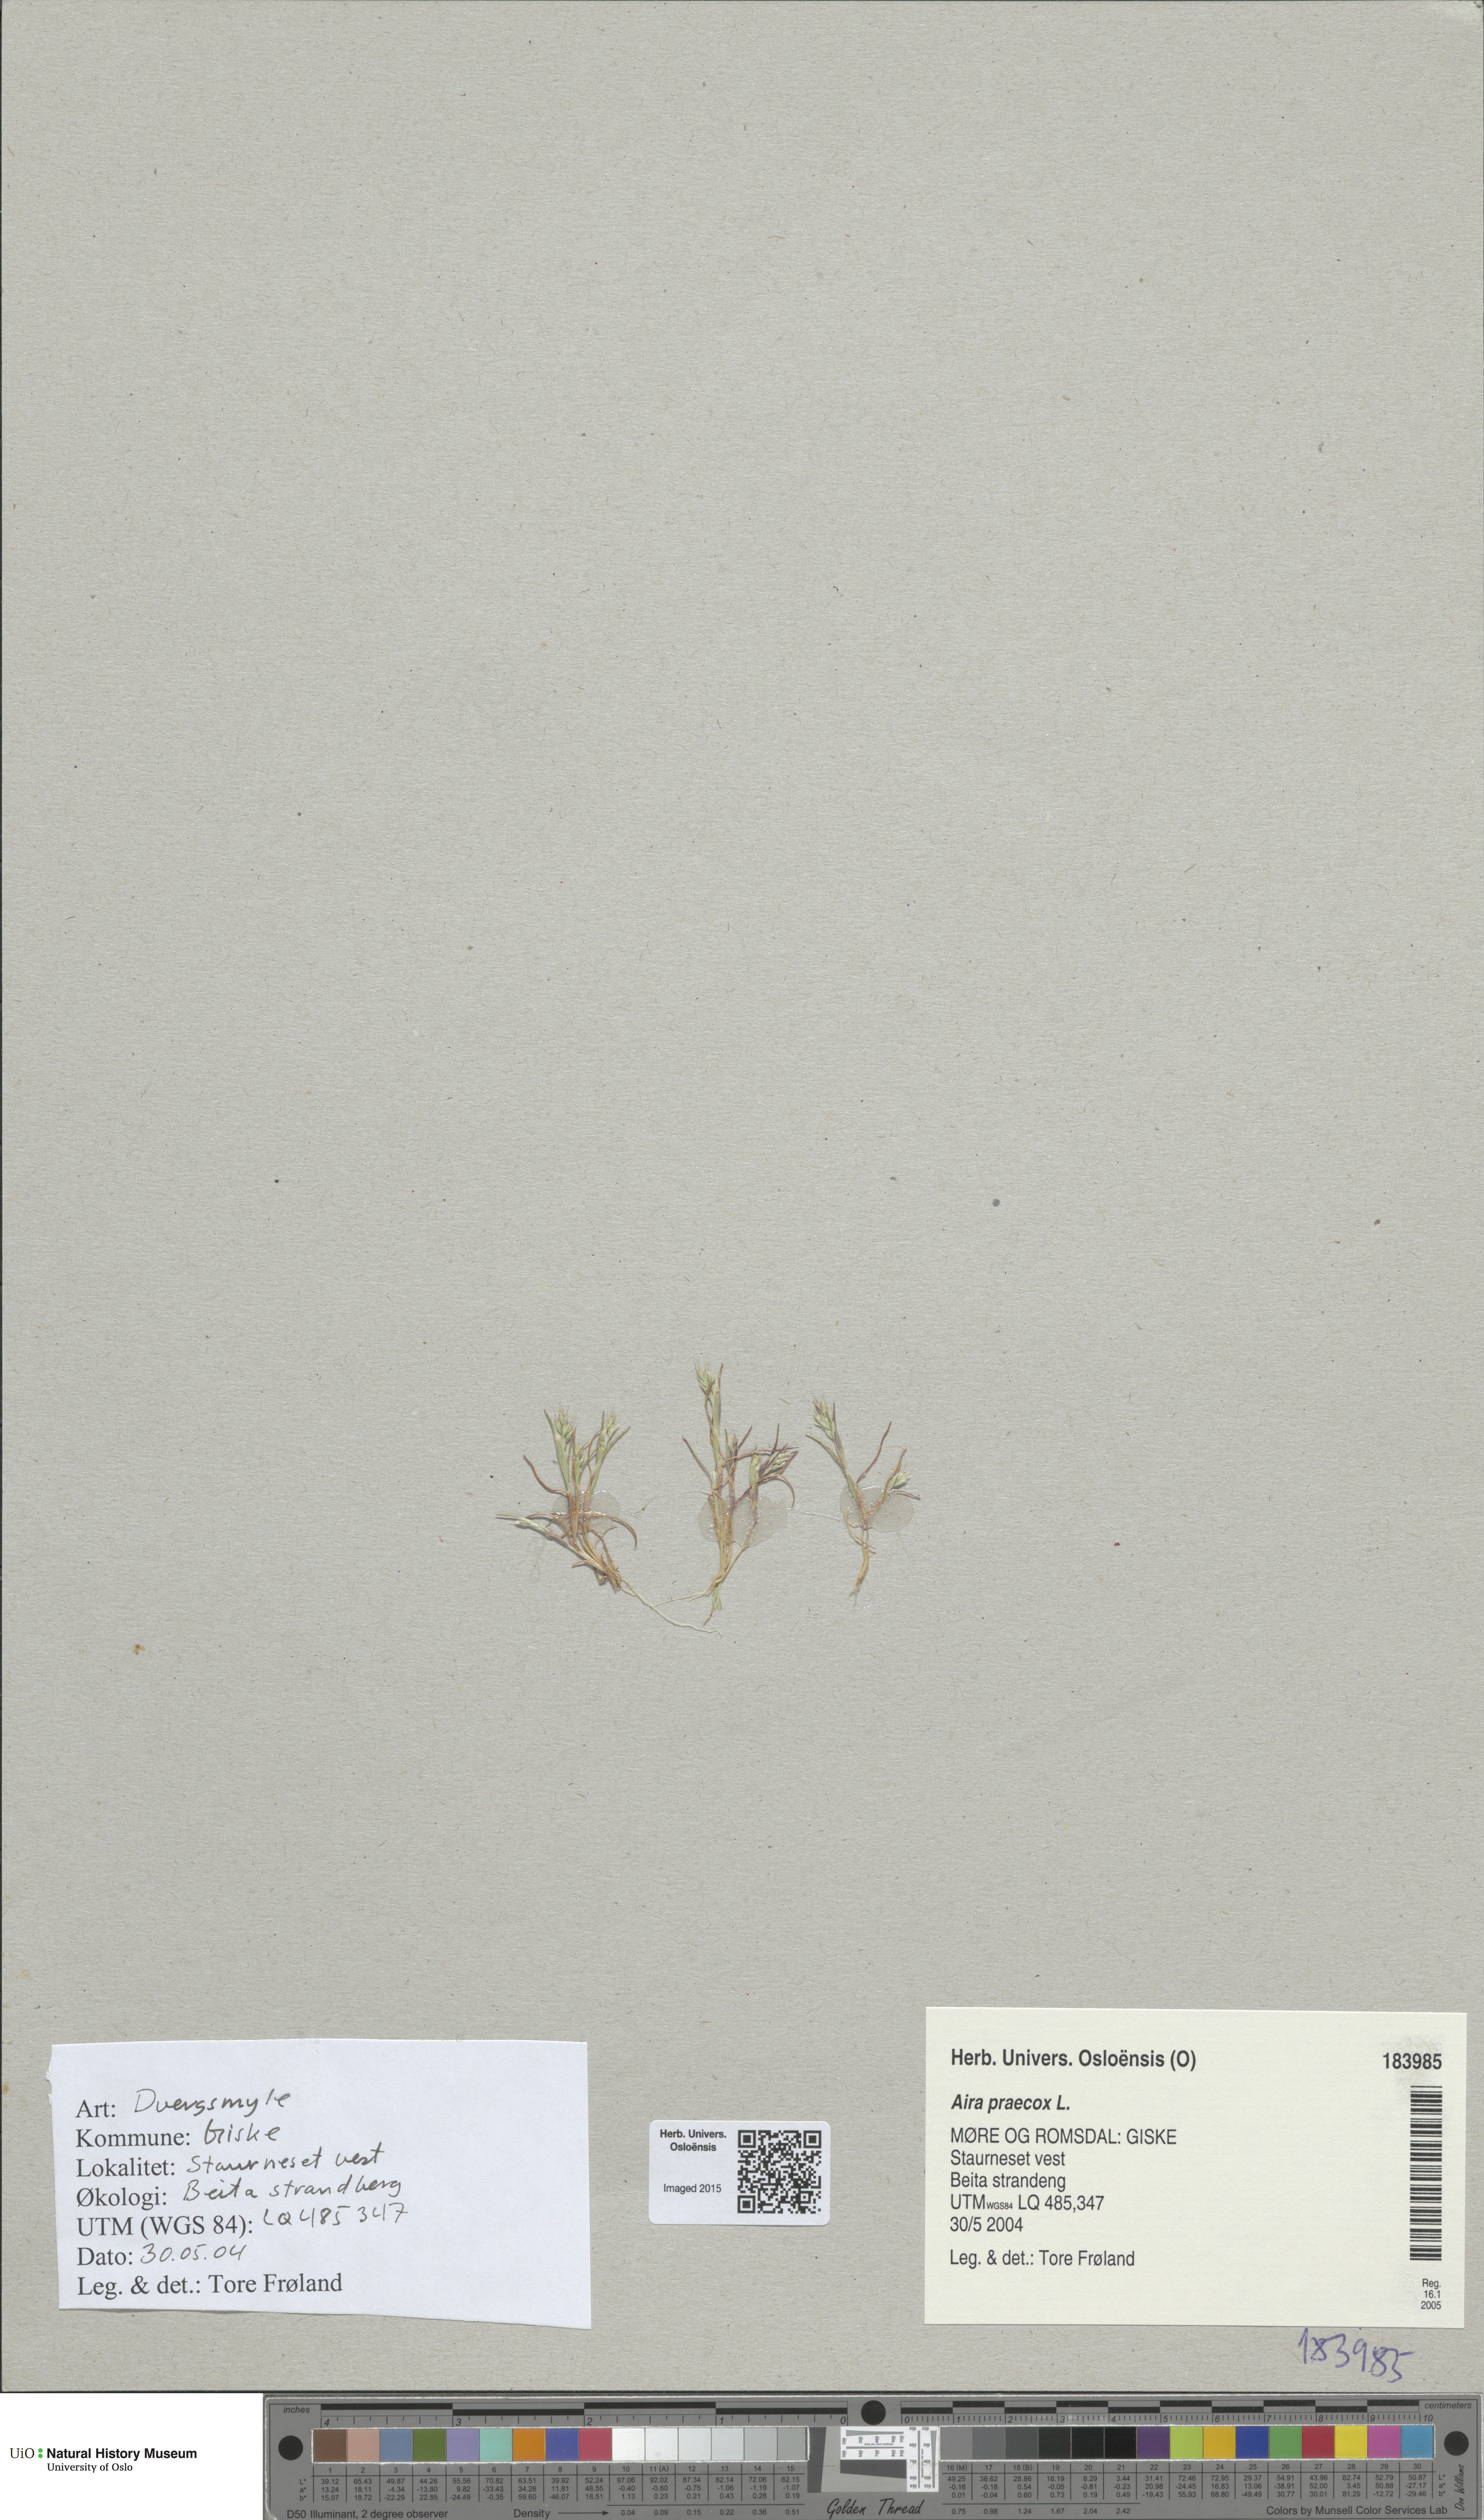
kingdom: Plantae
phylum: Tracheophyta
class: Liliopsida
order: Poales
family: Poaceae
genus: Aira
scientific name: Aira praecox
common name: Early hair-grass
